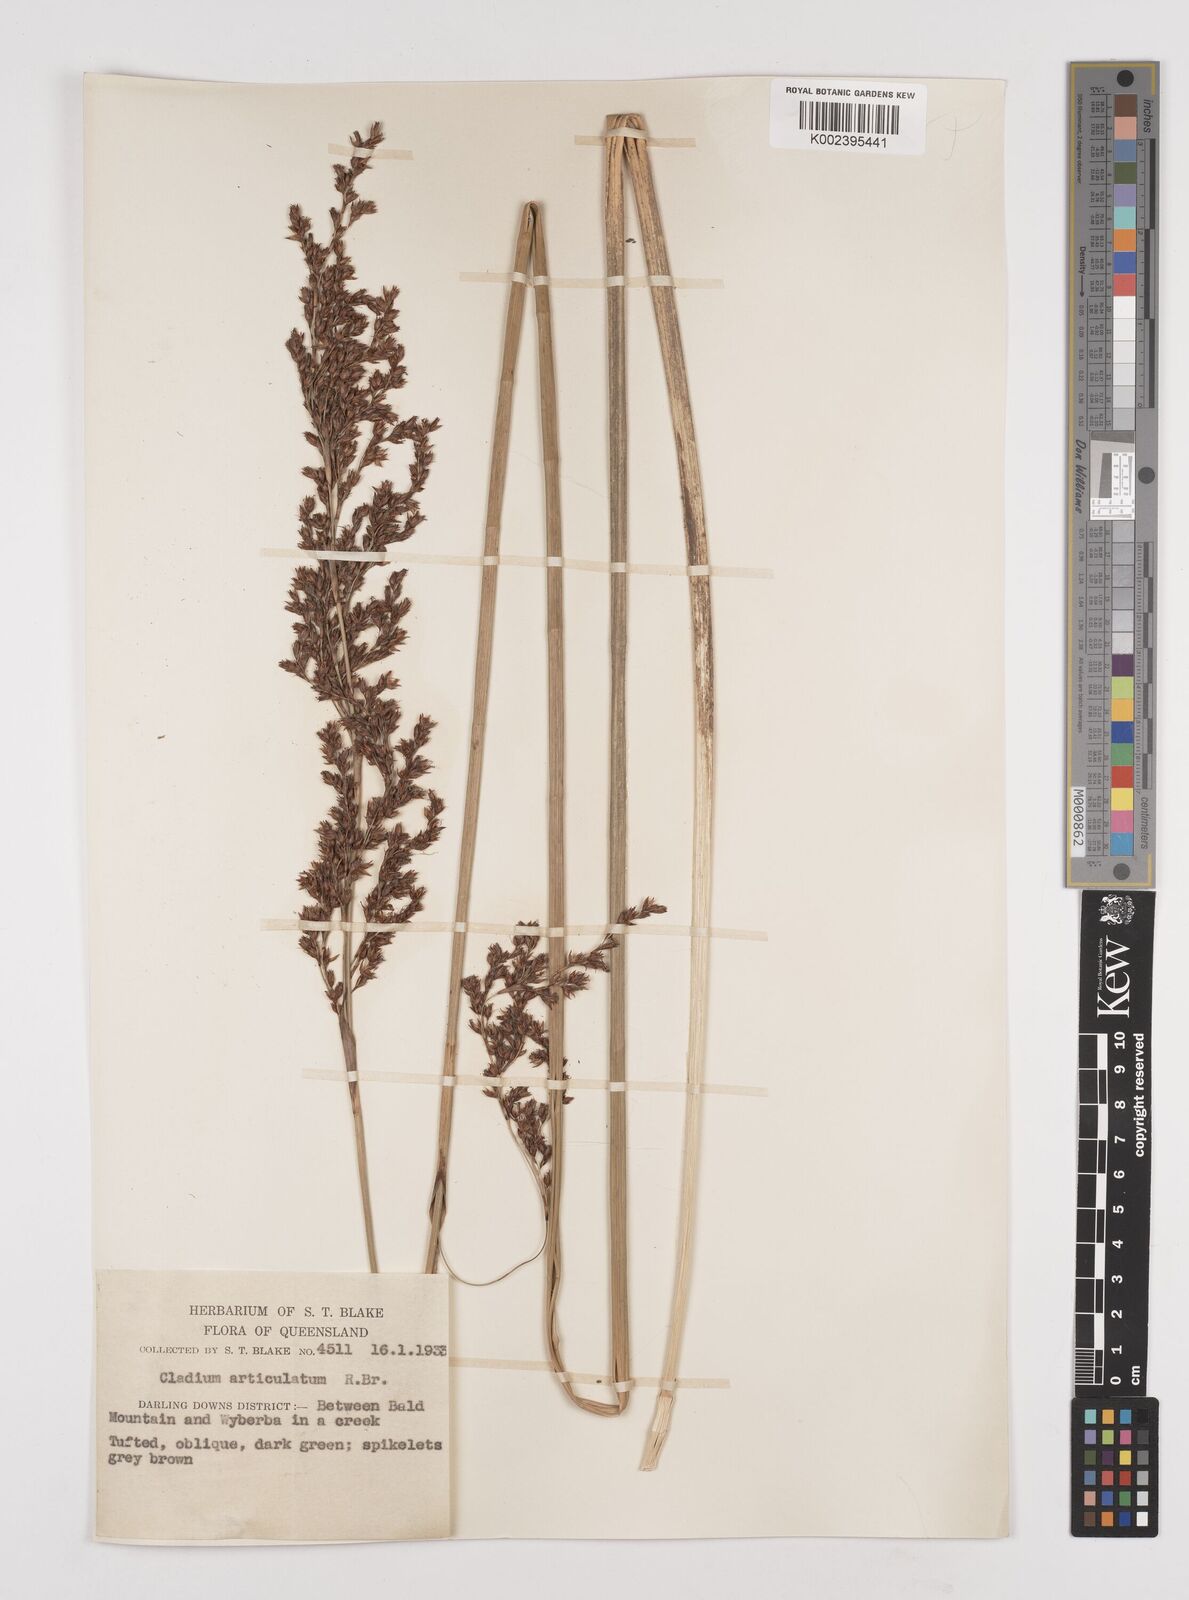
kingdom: Plantae
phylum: Tracheophyta
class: Liliopsida
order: Poales
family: Cyperaceae
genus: Machaerina
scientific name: Machaerina articulata
